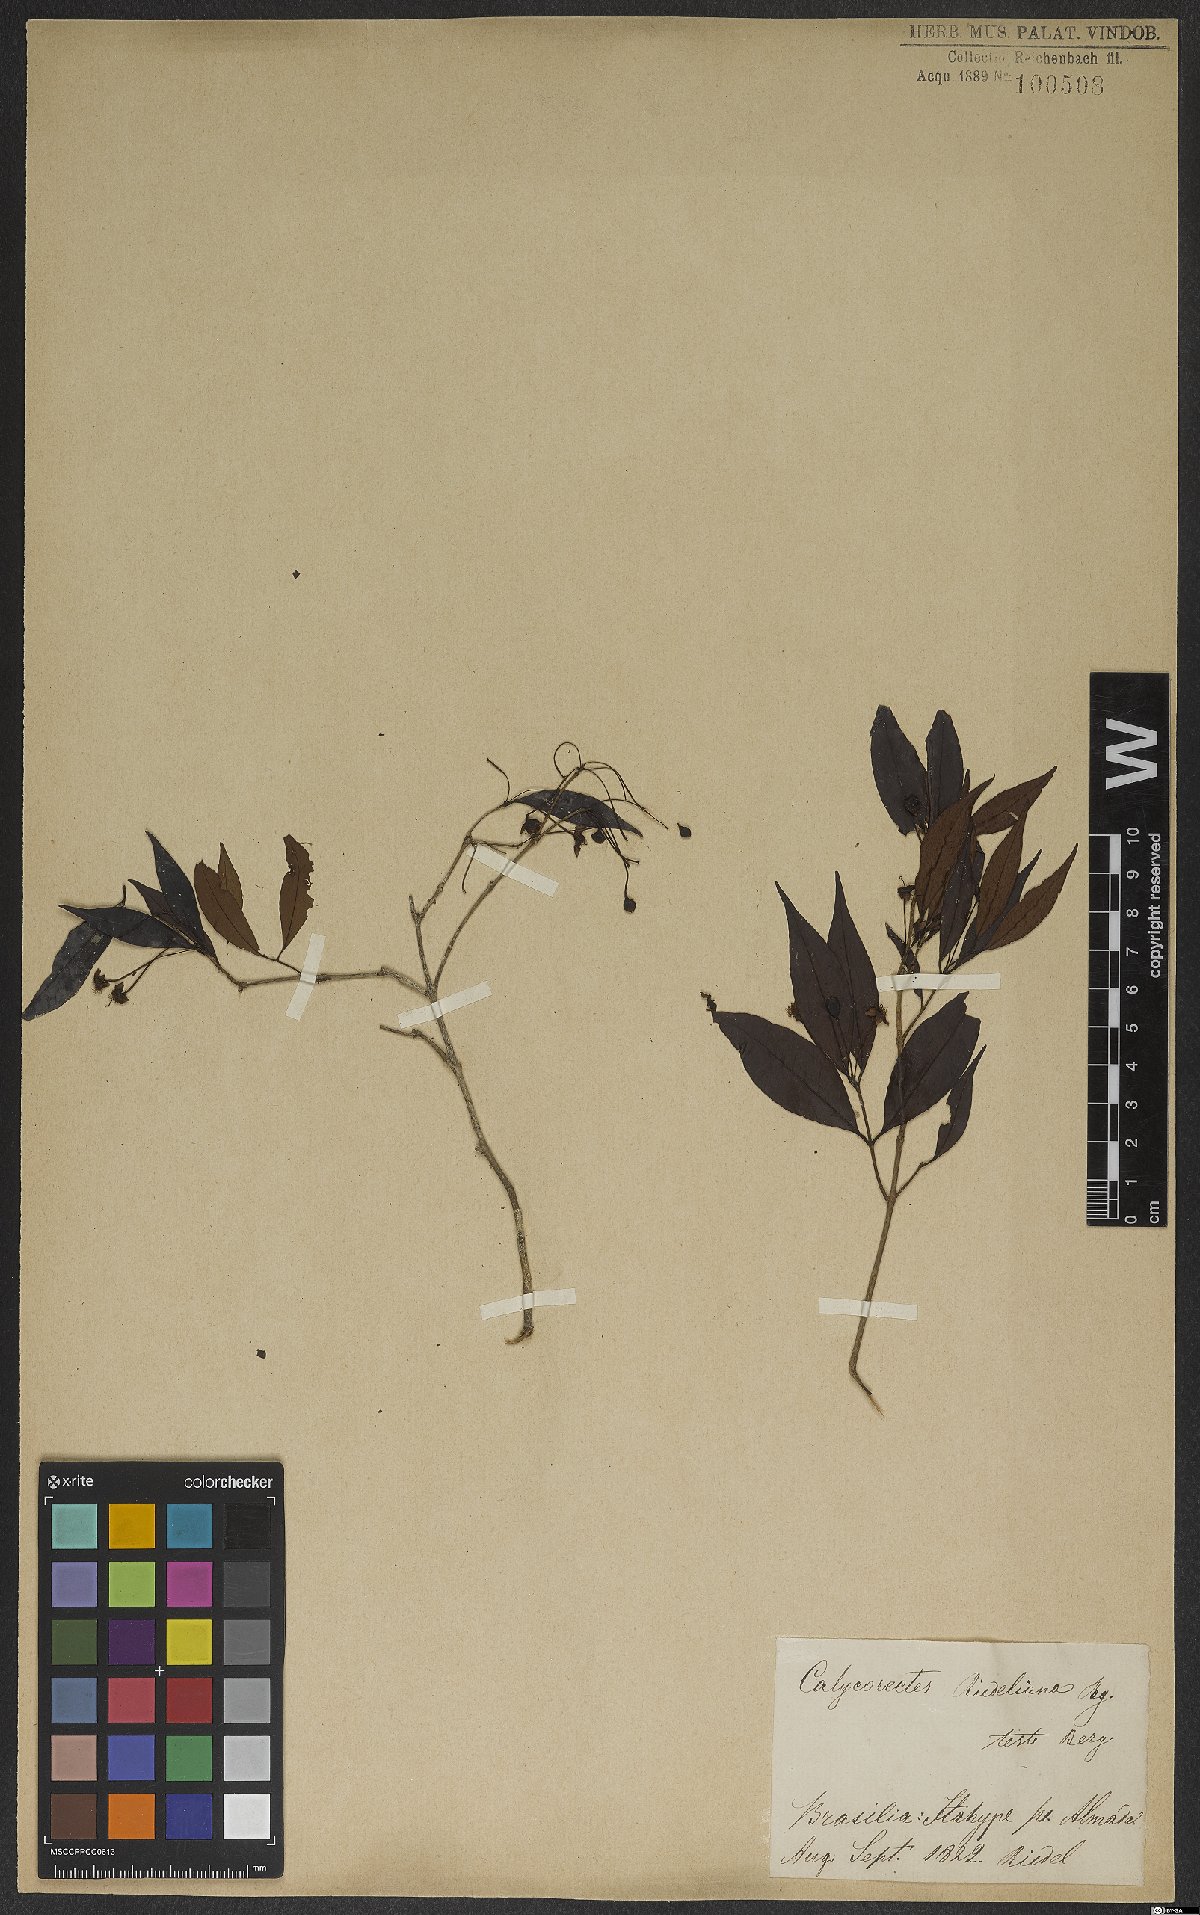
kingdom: Plantae
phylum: Tracheophyta
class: Magnoliopsida
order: Myrtales
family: Myrtaceae
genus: Eugenia
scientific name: Eugenia subterminalis
